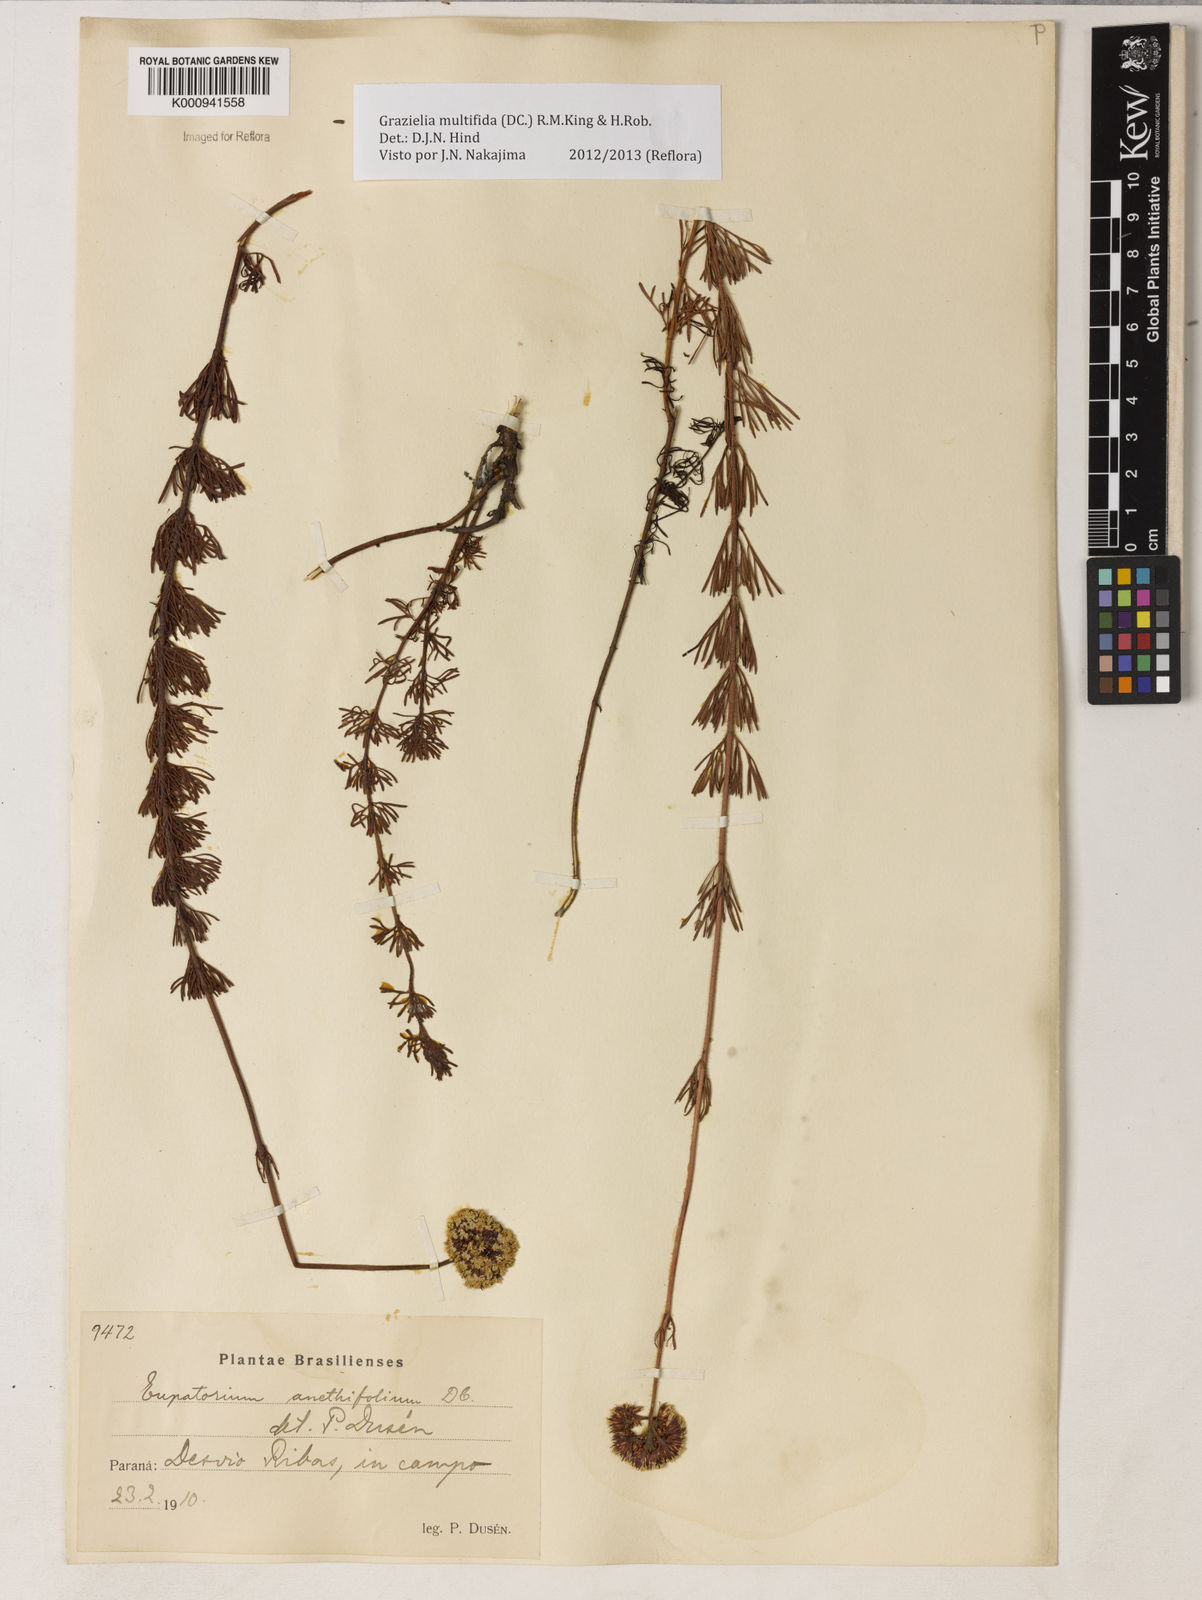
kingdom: Plantae
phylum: Tracheophyta
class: Magnoliopsida
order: Asterales
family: Asteraceae
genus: Grazielia
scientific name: Grazielia multifida
